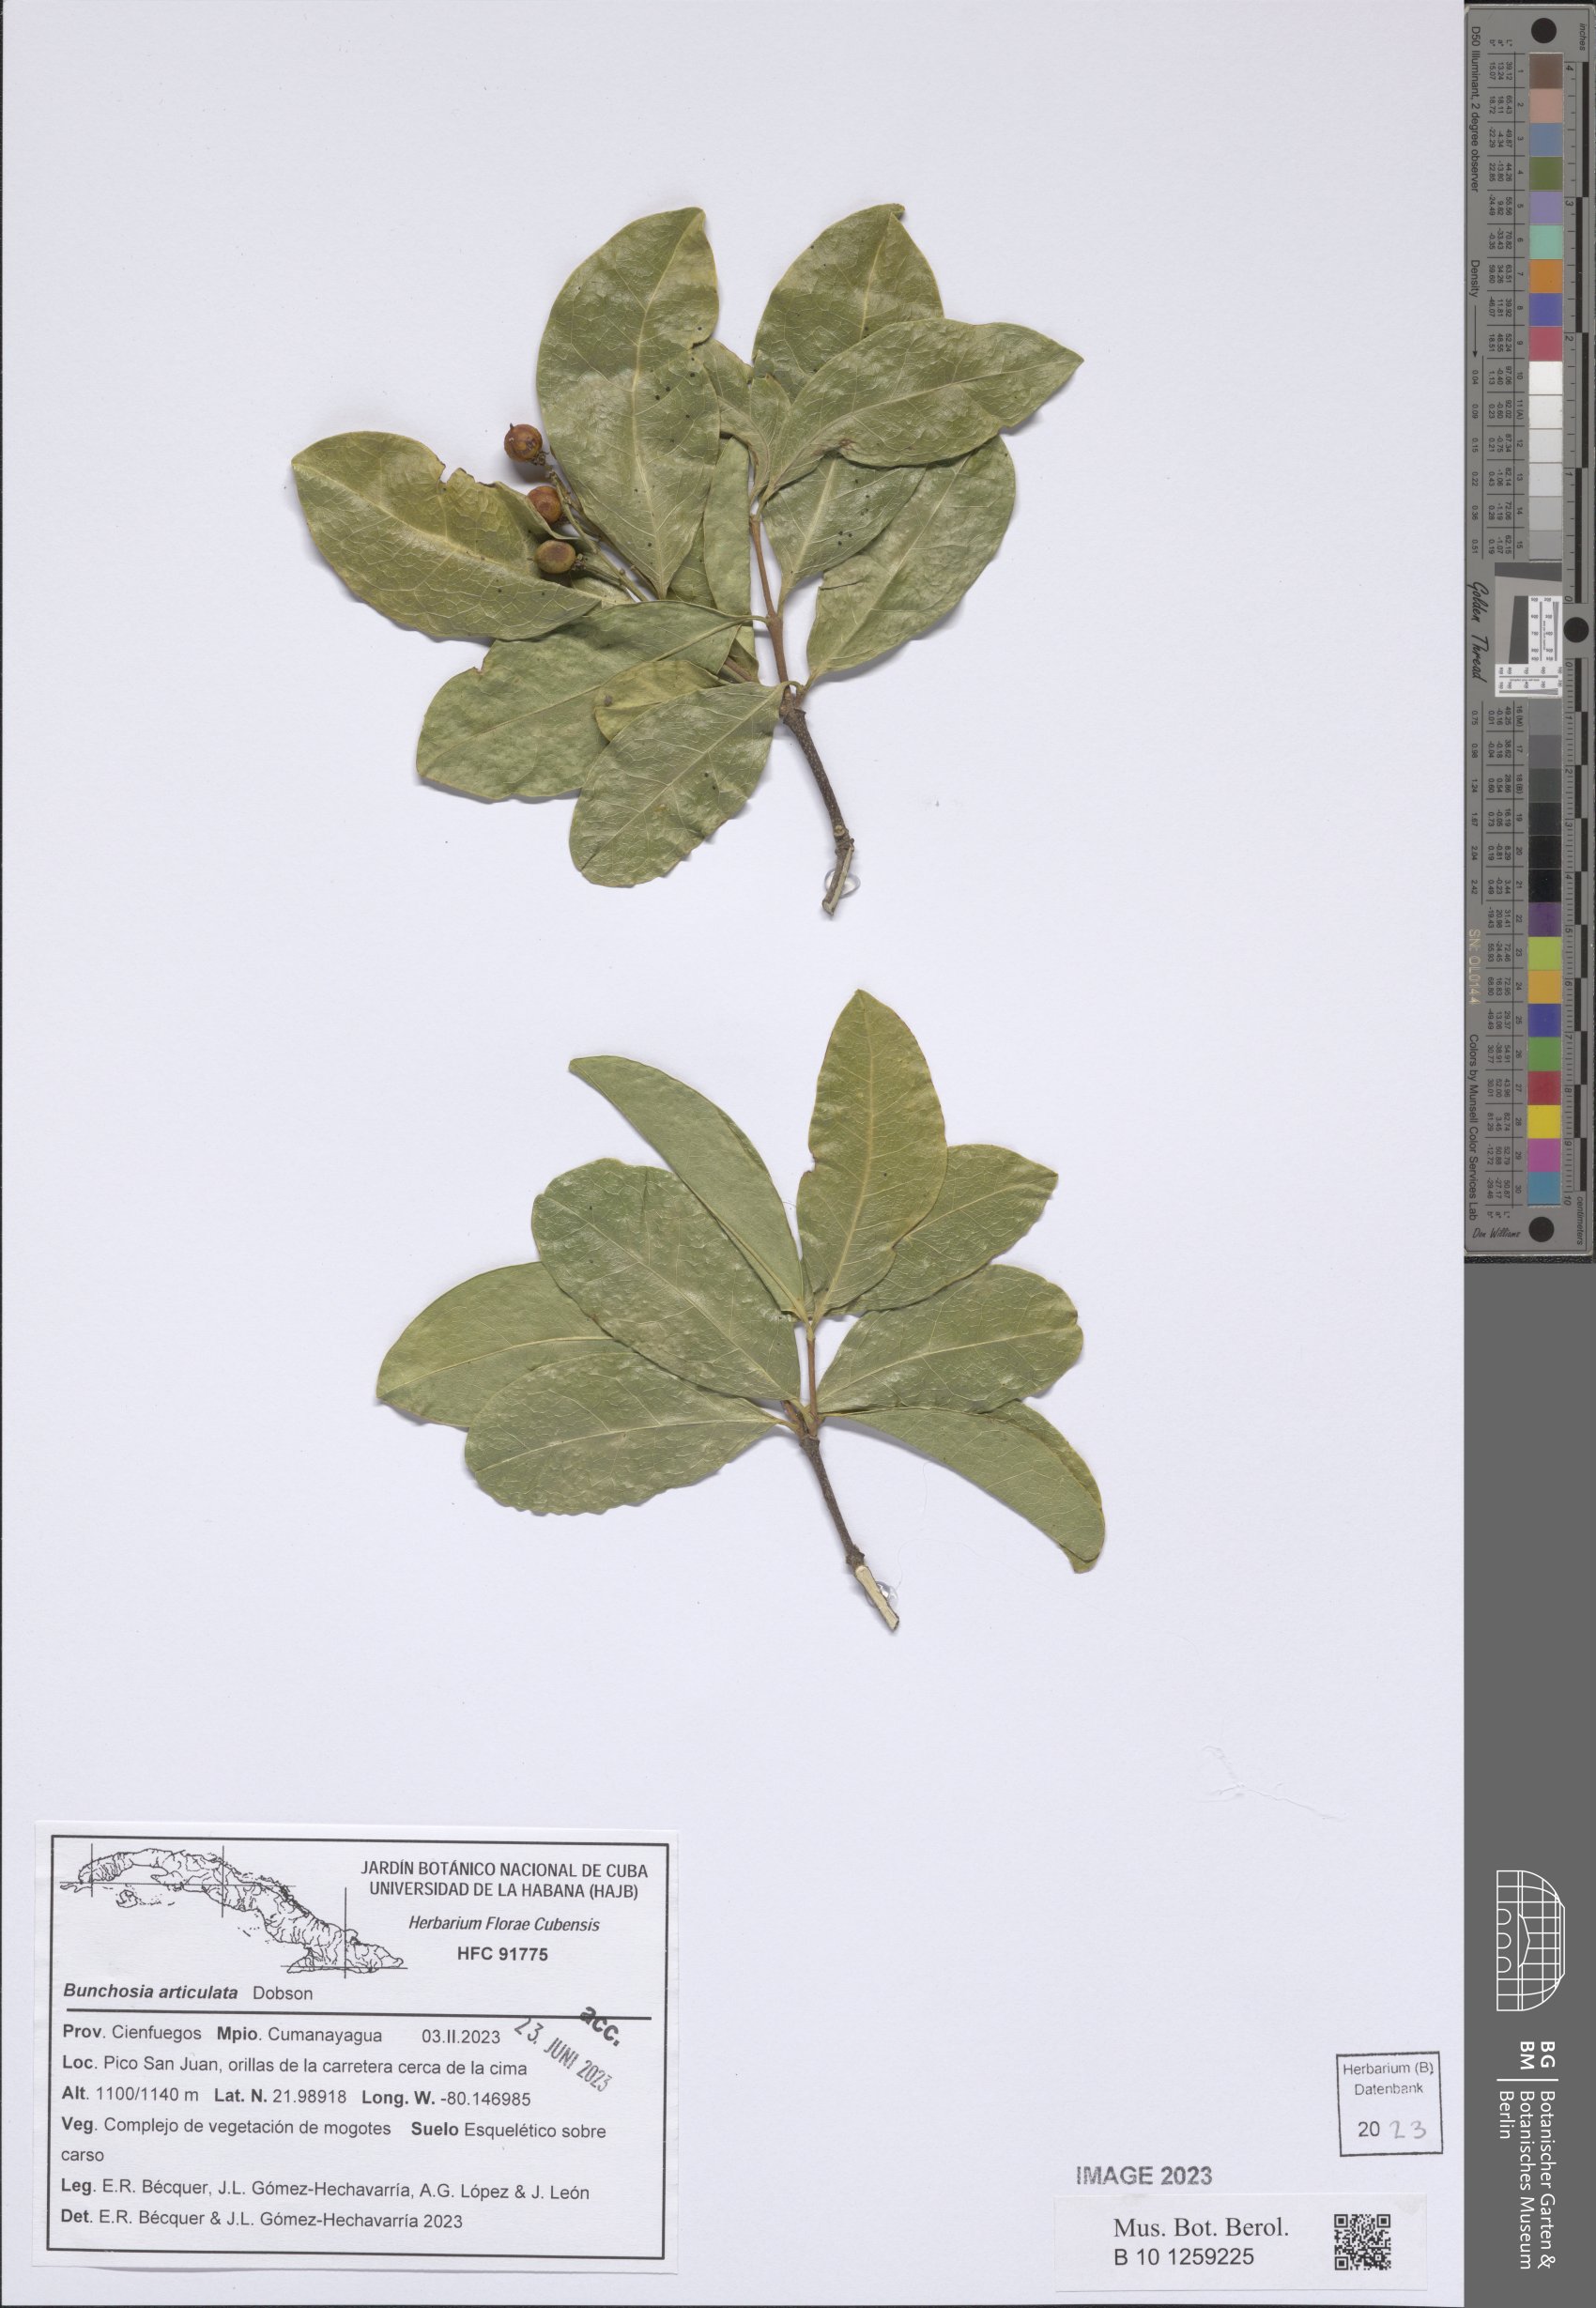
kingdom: Plantae
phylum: Tracheophyta
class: Magnoliopsida
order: Malpighiales
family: Malpighiaceae
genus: Bunchosia
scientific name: Bunchosia articulata
